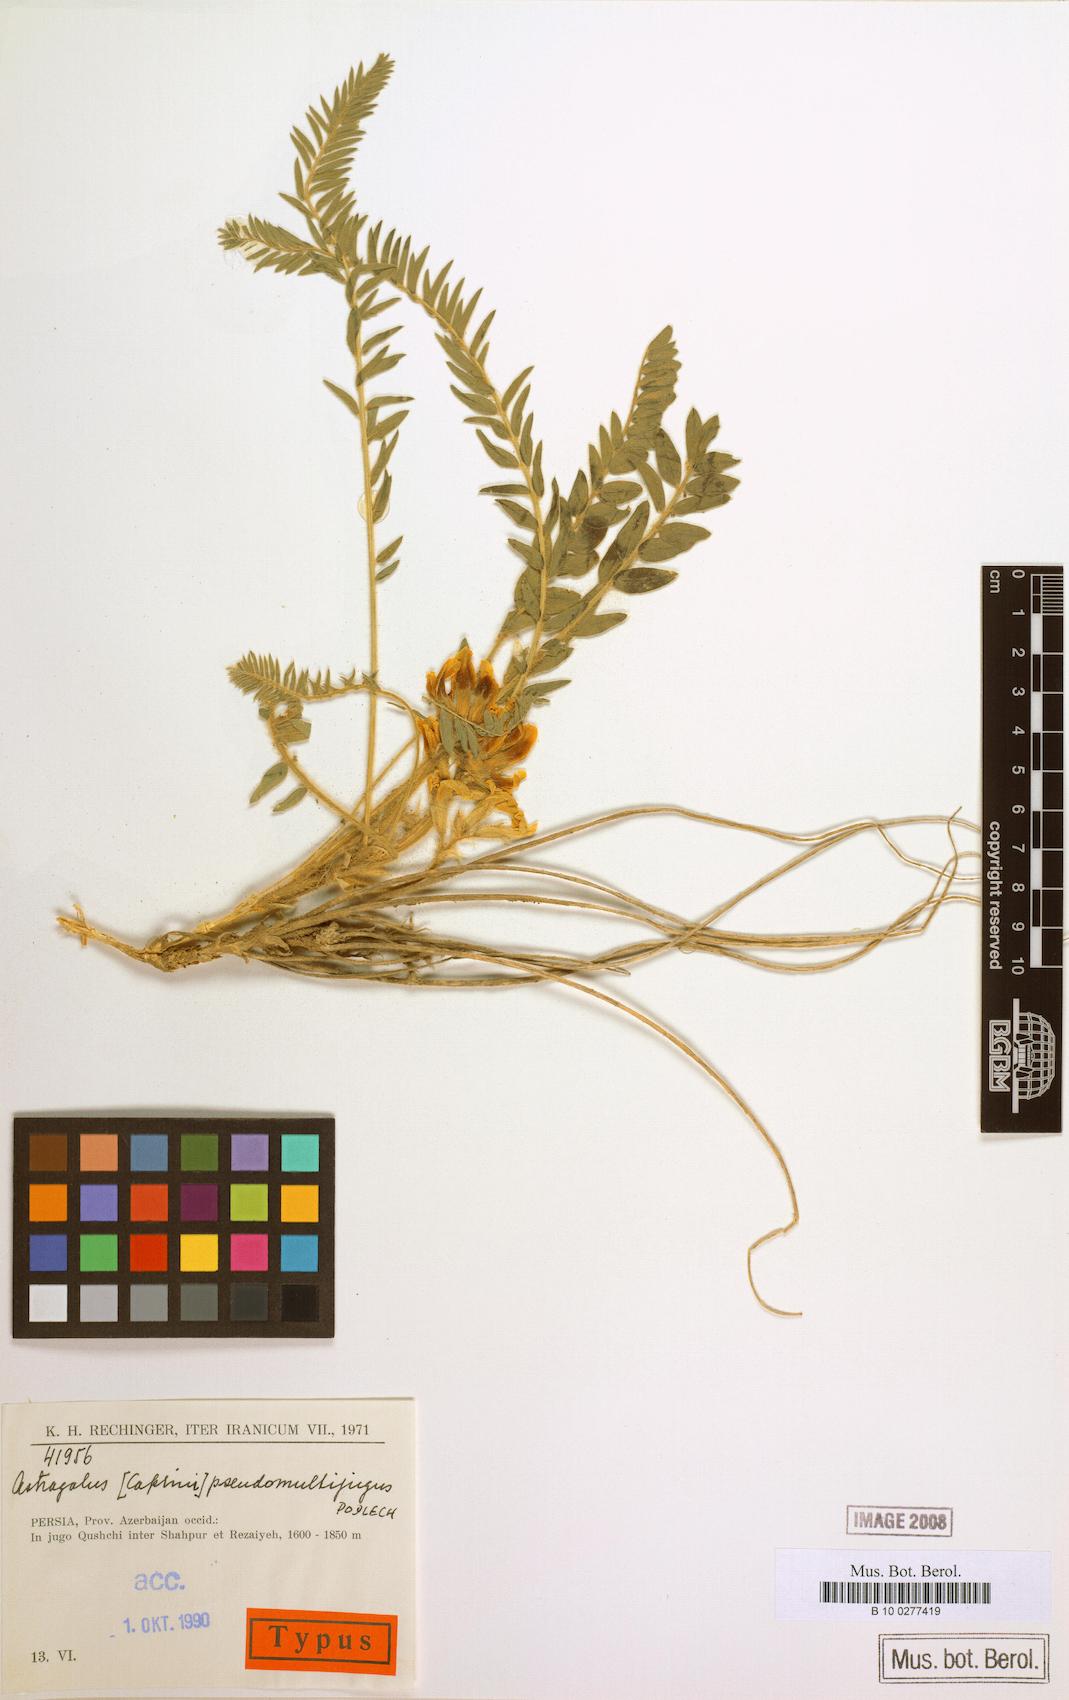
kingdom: Plantae
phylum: Tracheophyta
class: Magnoliopsida
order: Fabales
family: Fabaceae
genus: Astragalus
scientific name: Astragalus pseudomultijugus
